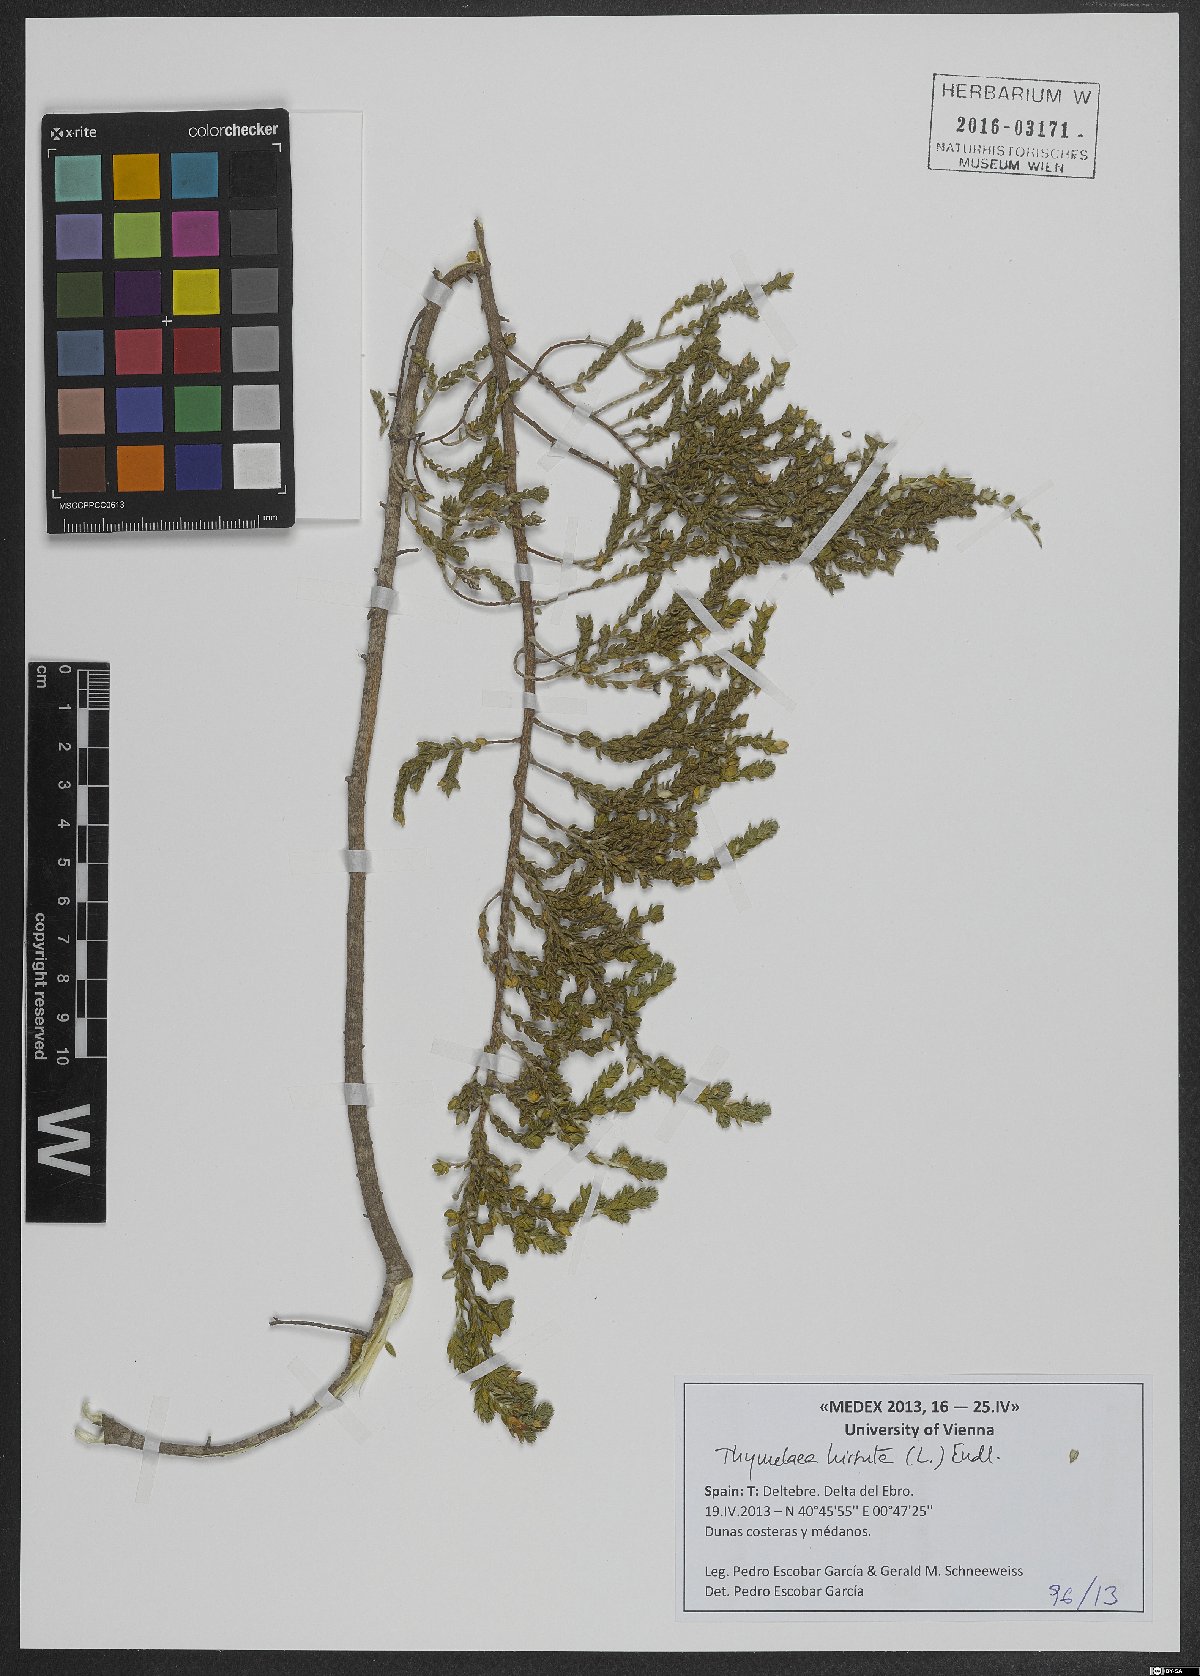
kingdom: Plantae
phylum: Tracheophyta
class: Magnoliopsida
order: Malvales
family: Thymelaeaceae
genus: Thymelaea
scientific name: Thymelaea hirsuta
